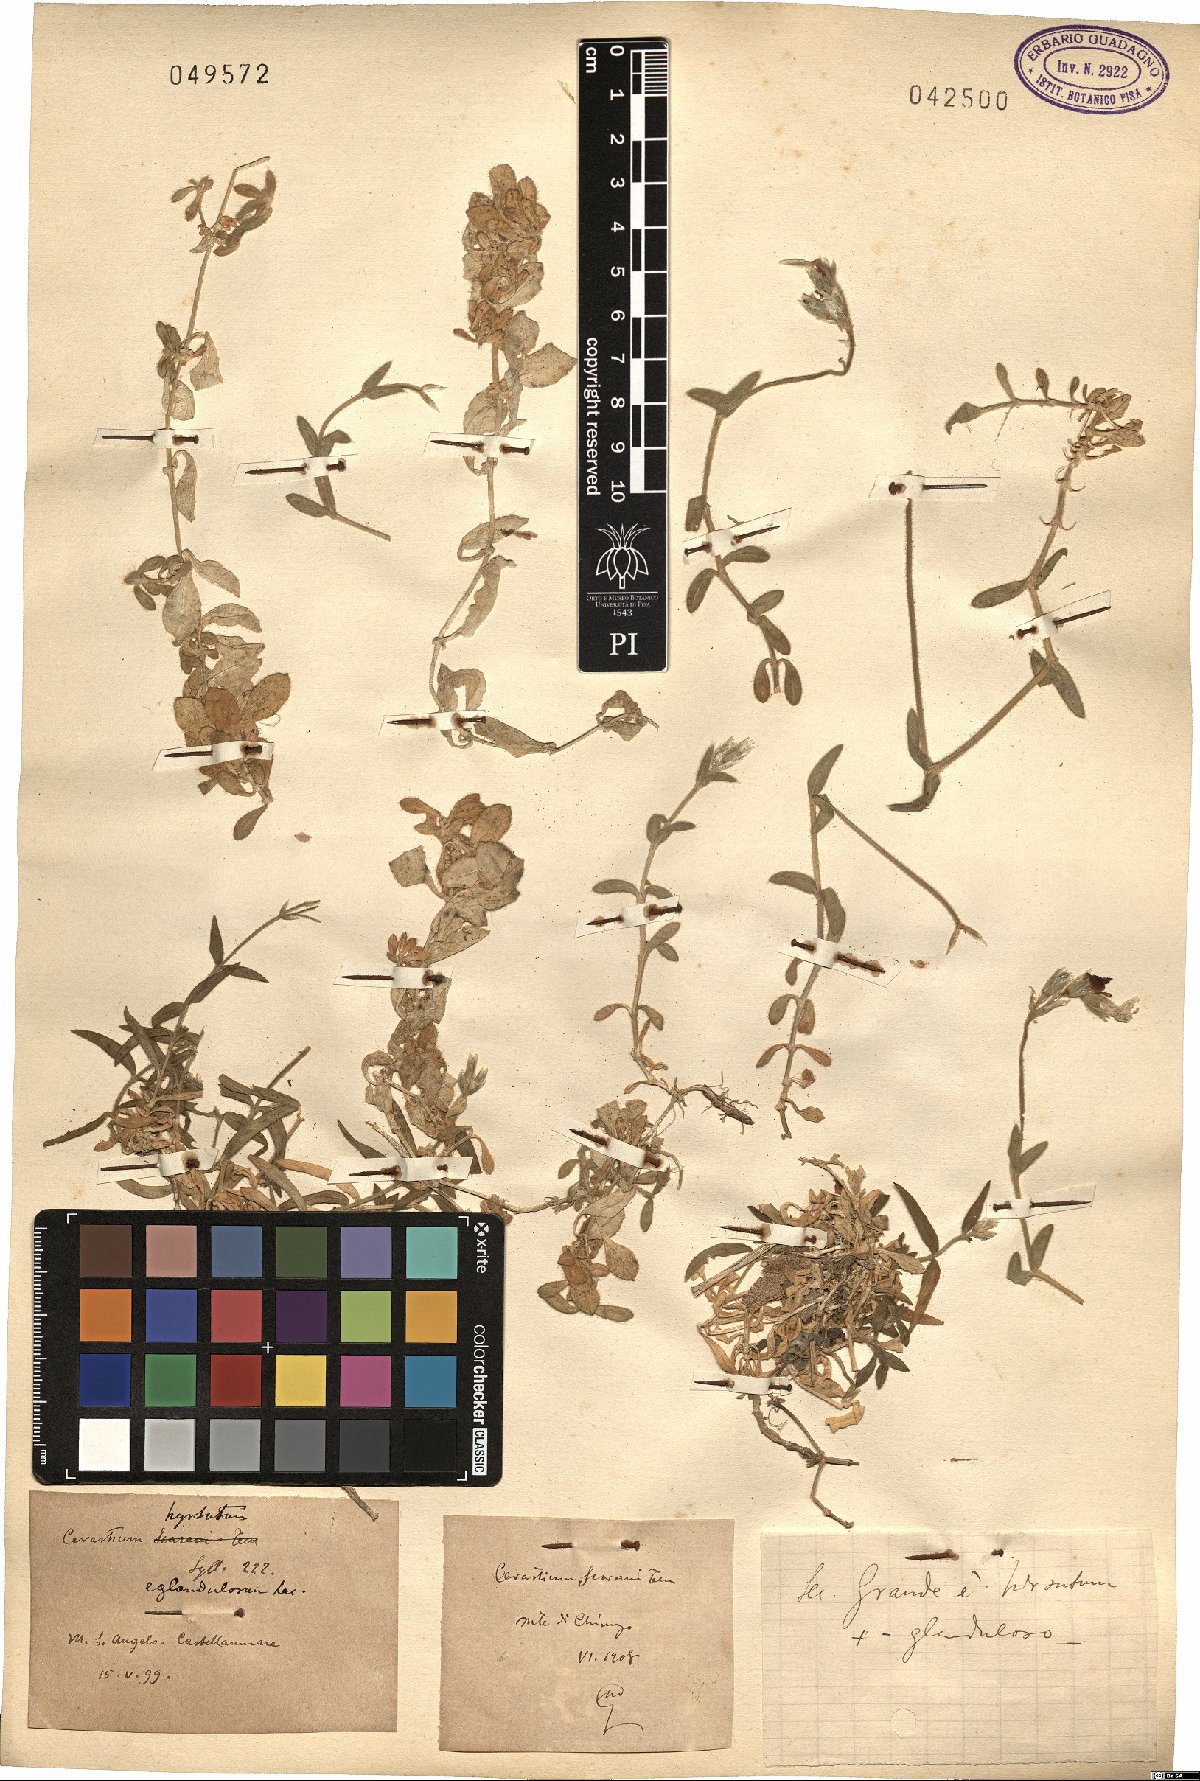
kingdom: Plantae
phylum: Tracheophyta
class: Magnoliopsida
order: Caryophyllales
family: Caryophyllaceae
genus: Cerastium
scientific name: Cerastium scaranii
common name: Italian mouse-ear
